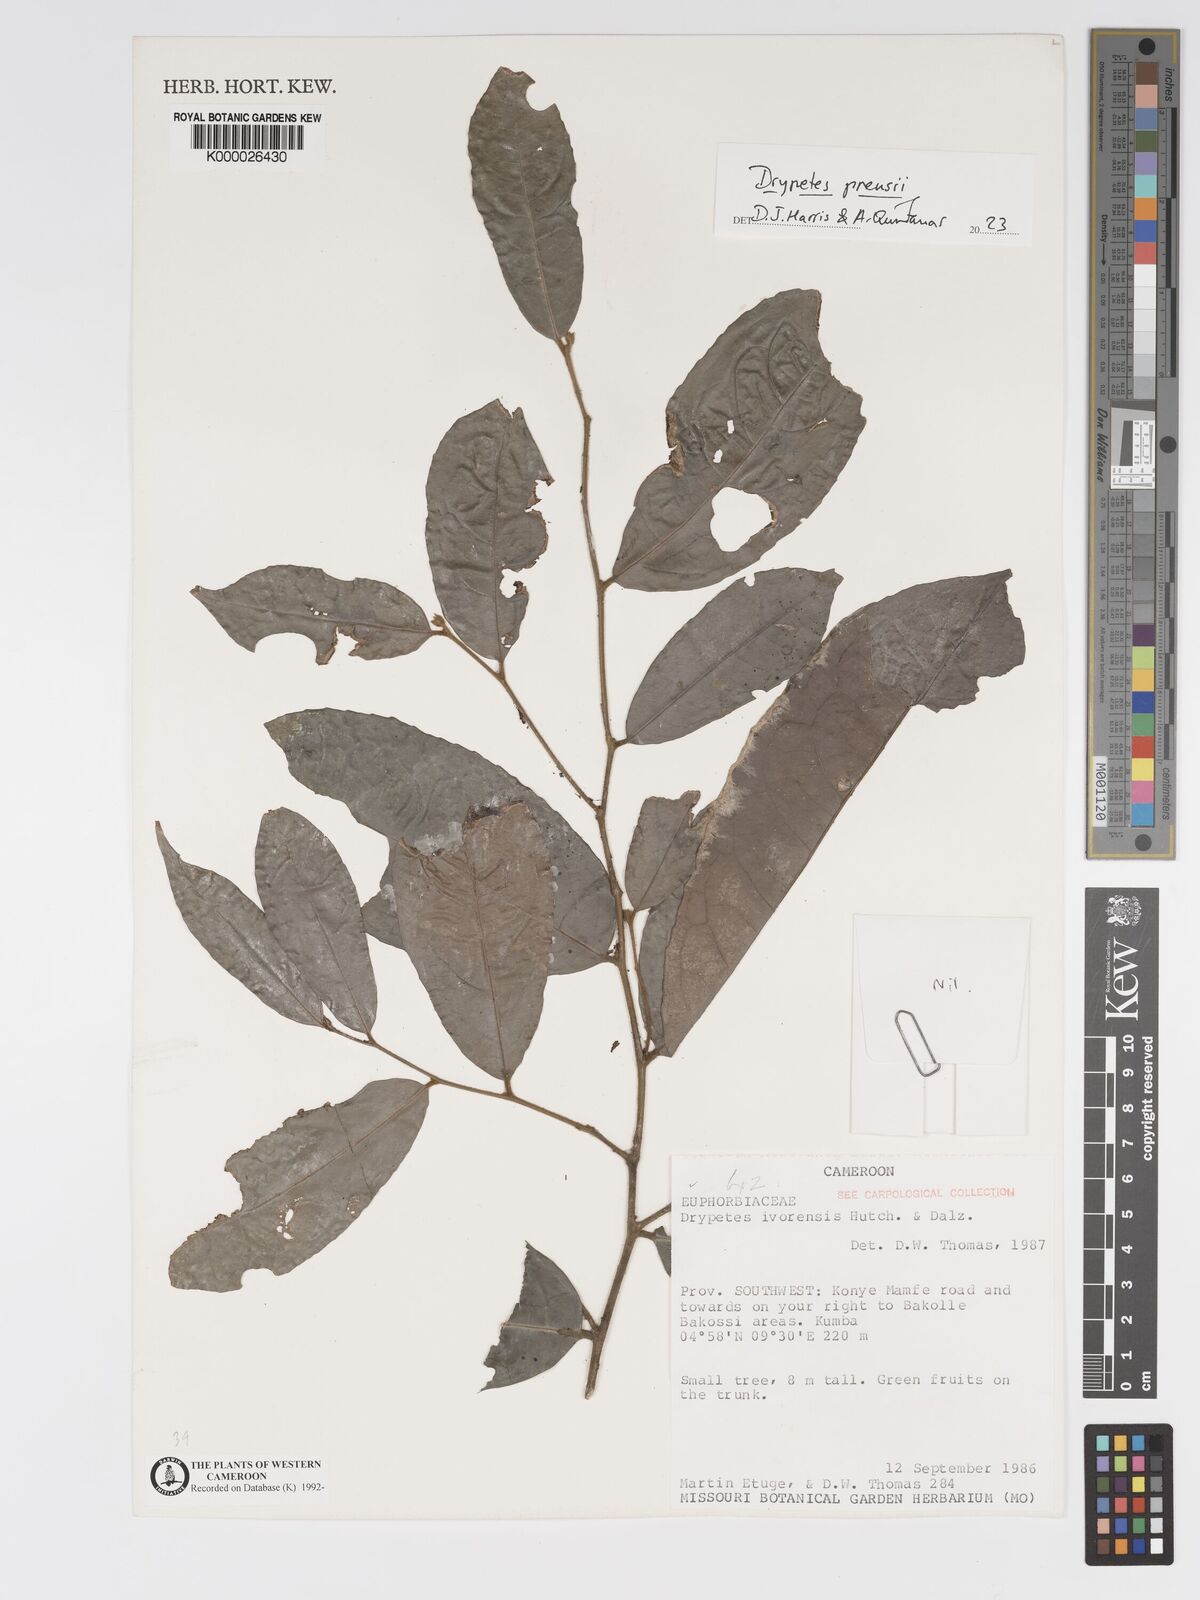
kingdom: Plantae
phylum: Tracheophyta
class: Magnoliopsida
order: Malpighiales
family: Putranjivaceae
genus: Drypetes
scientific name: Drypetes ivorensis
